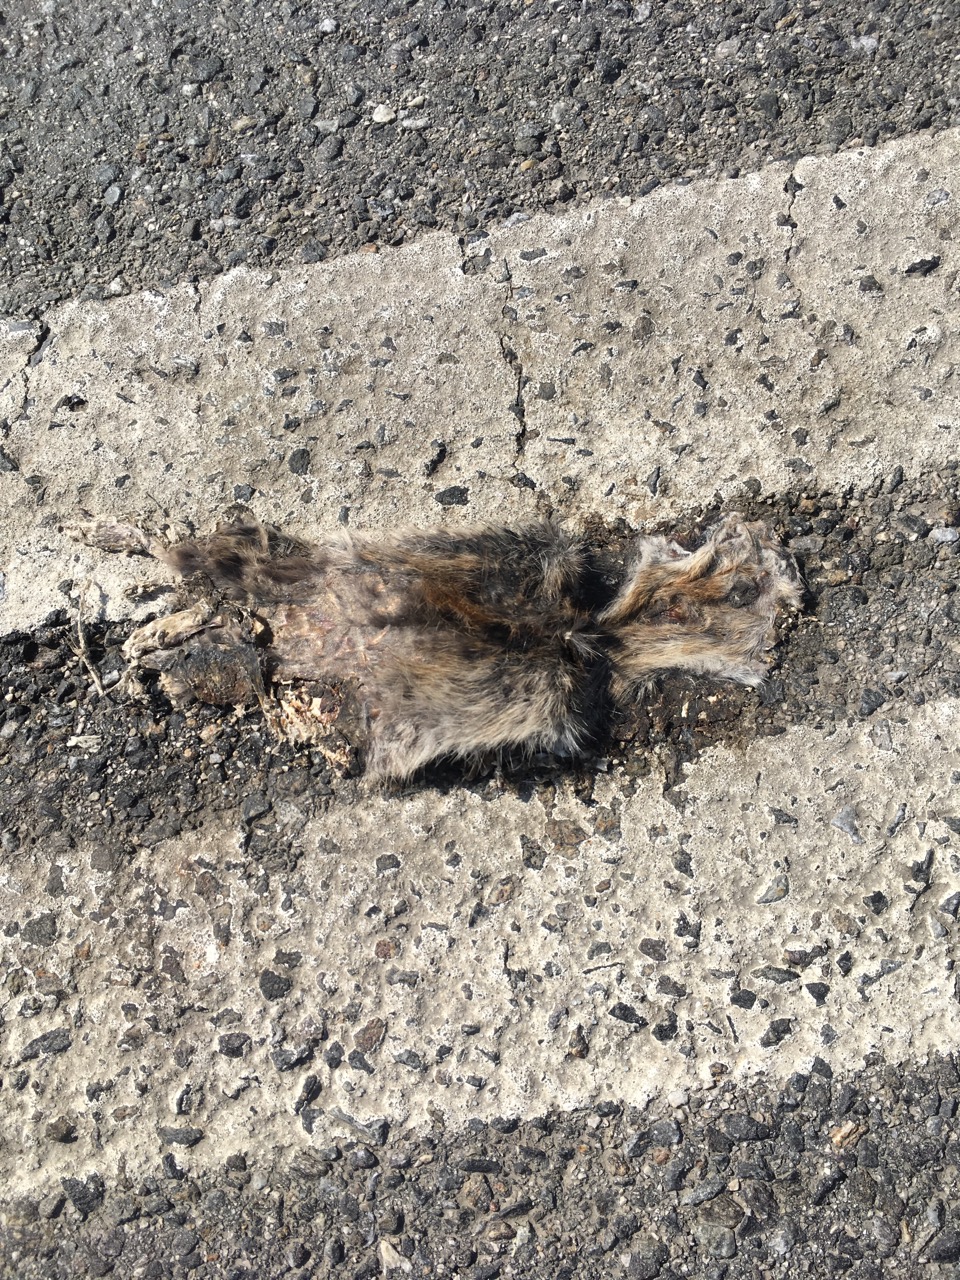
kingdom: Animalia
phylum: Chordata
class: Mammalia
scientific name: Mammalia
